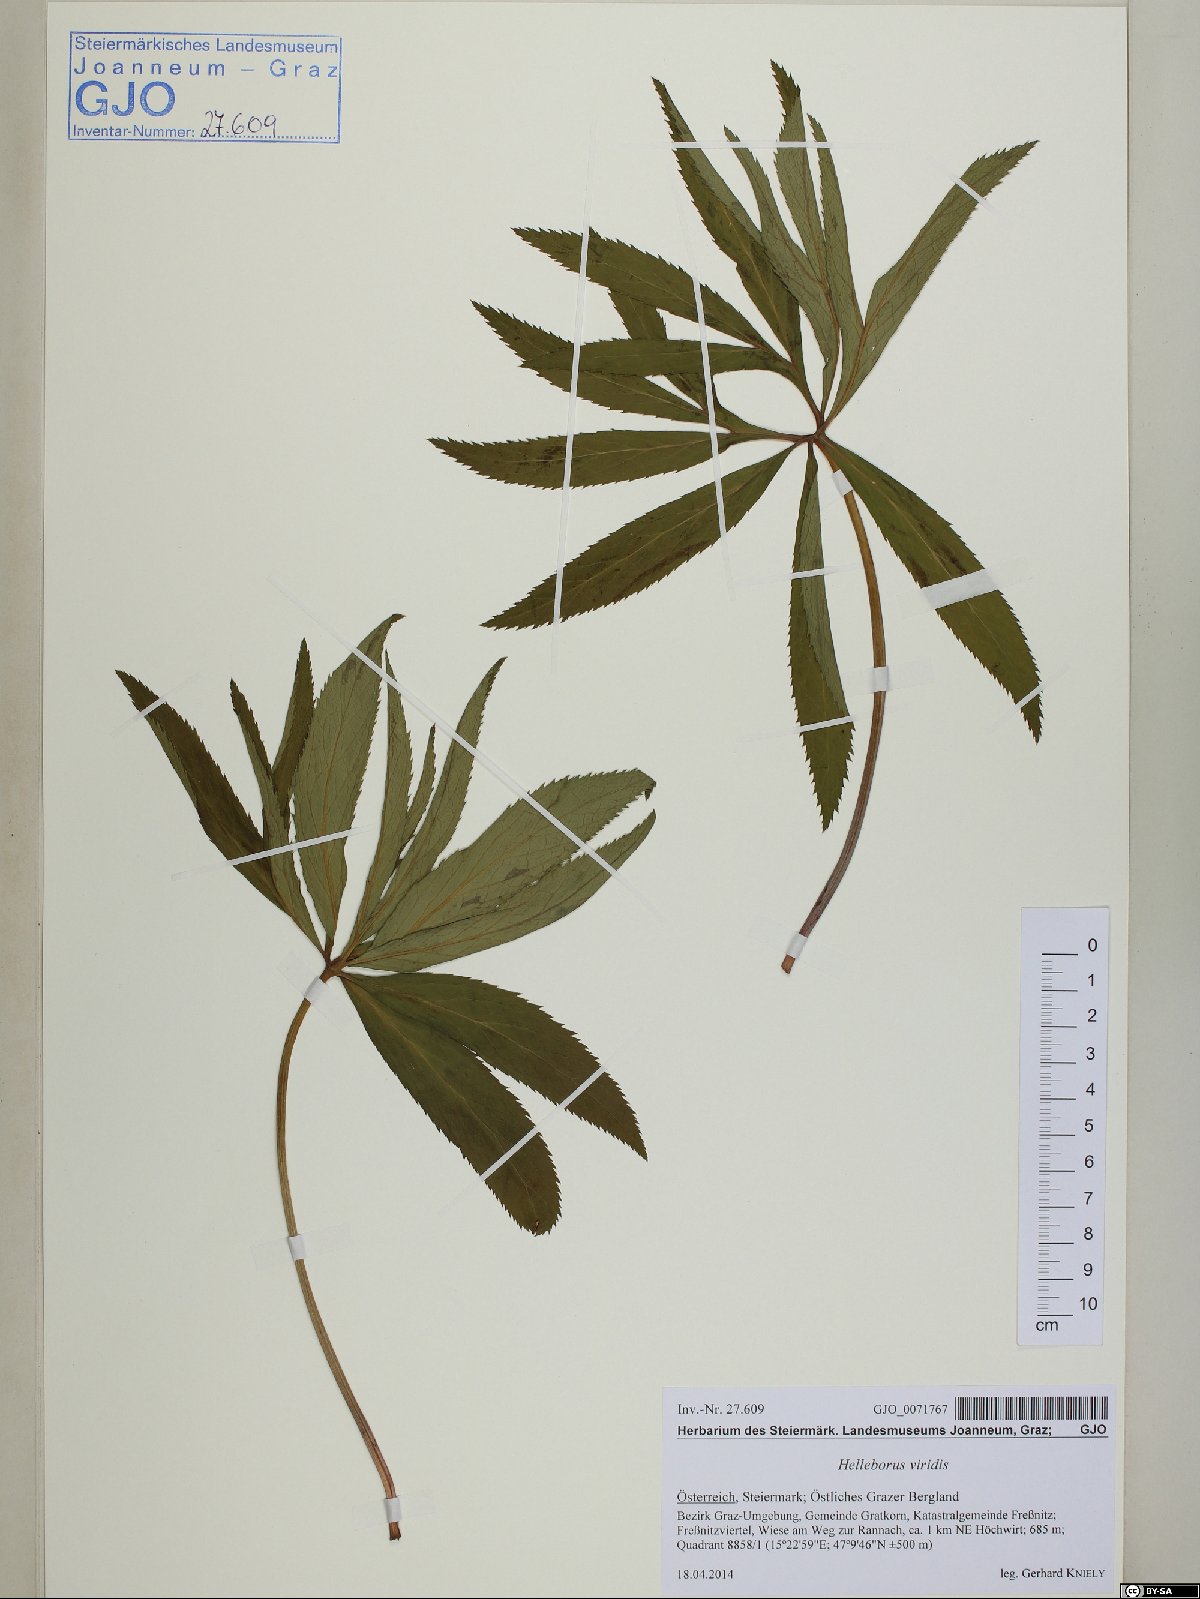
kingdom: Plantae
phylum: Tracheophyta
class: Magnoliopsida
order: Ranunculales
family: Ranunculaceae
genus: Helleborus
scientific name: Helleborus viridis
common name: Green hellebore
